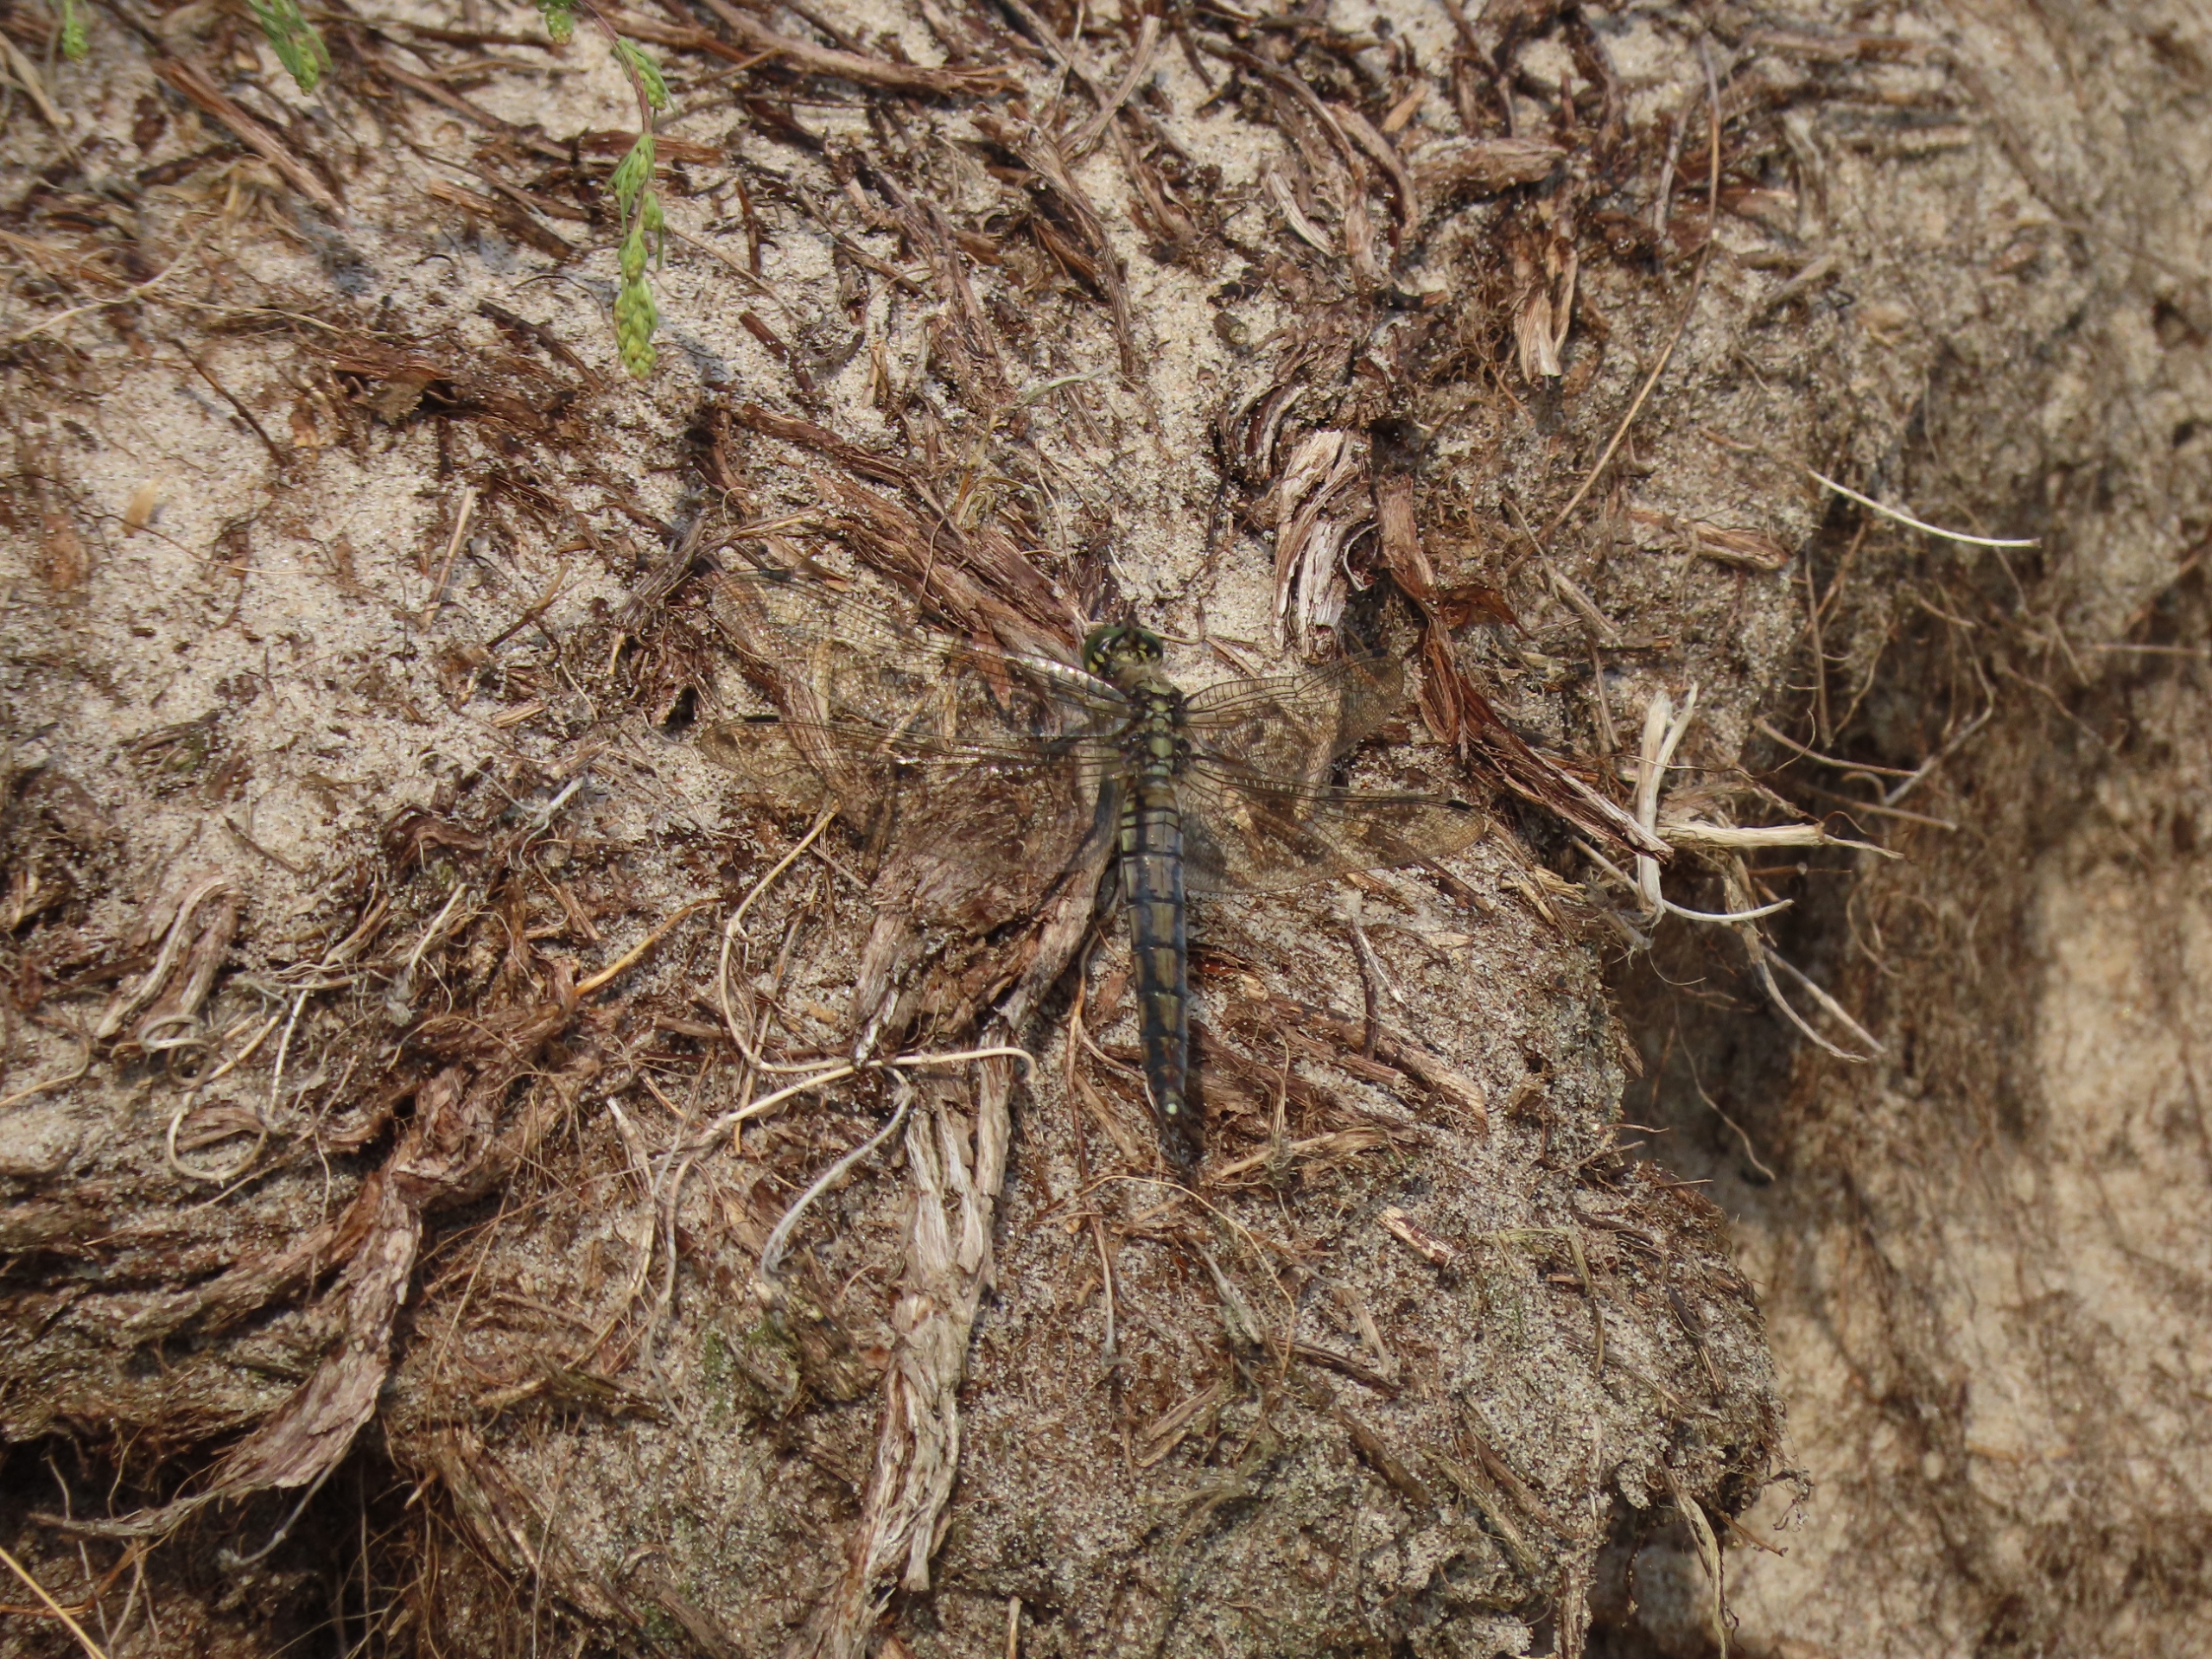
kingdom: Animalia
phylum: Arthropoda
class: Insecta
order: Odonata
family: Libellulidae
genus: Orthetrum
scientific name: Orthetrum cancellatum
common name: Stor blåpil
